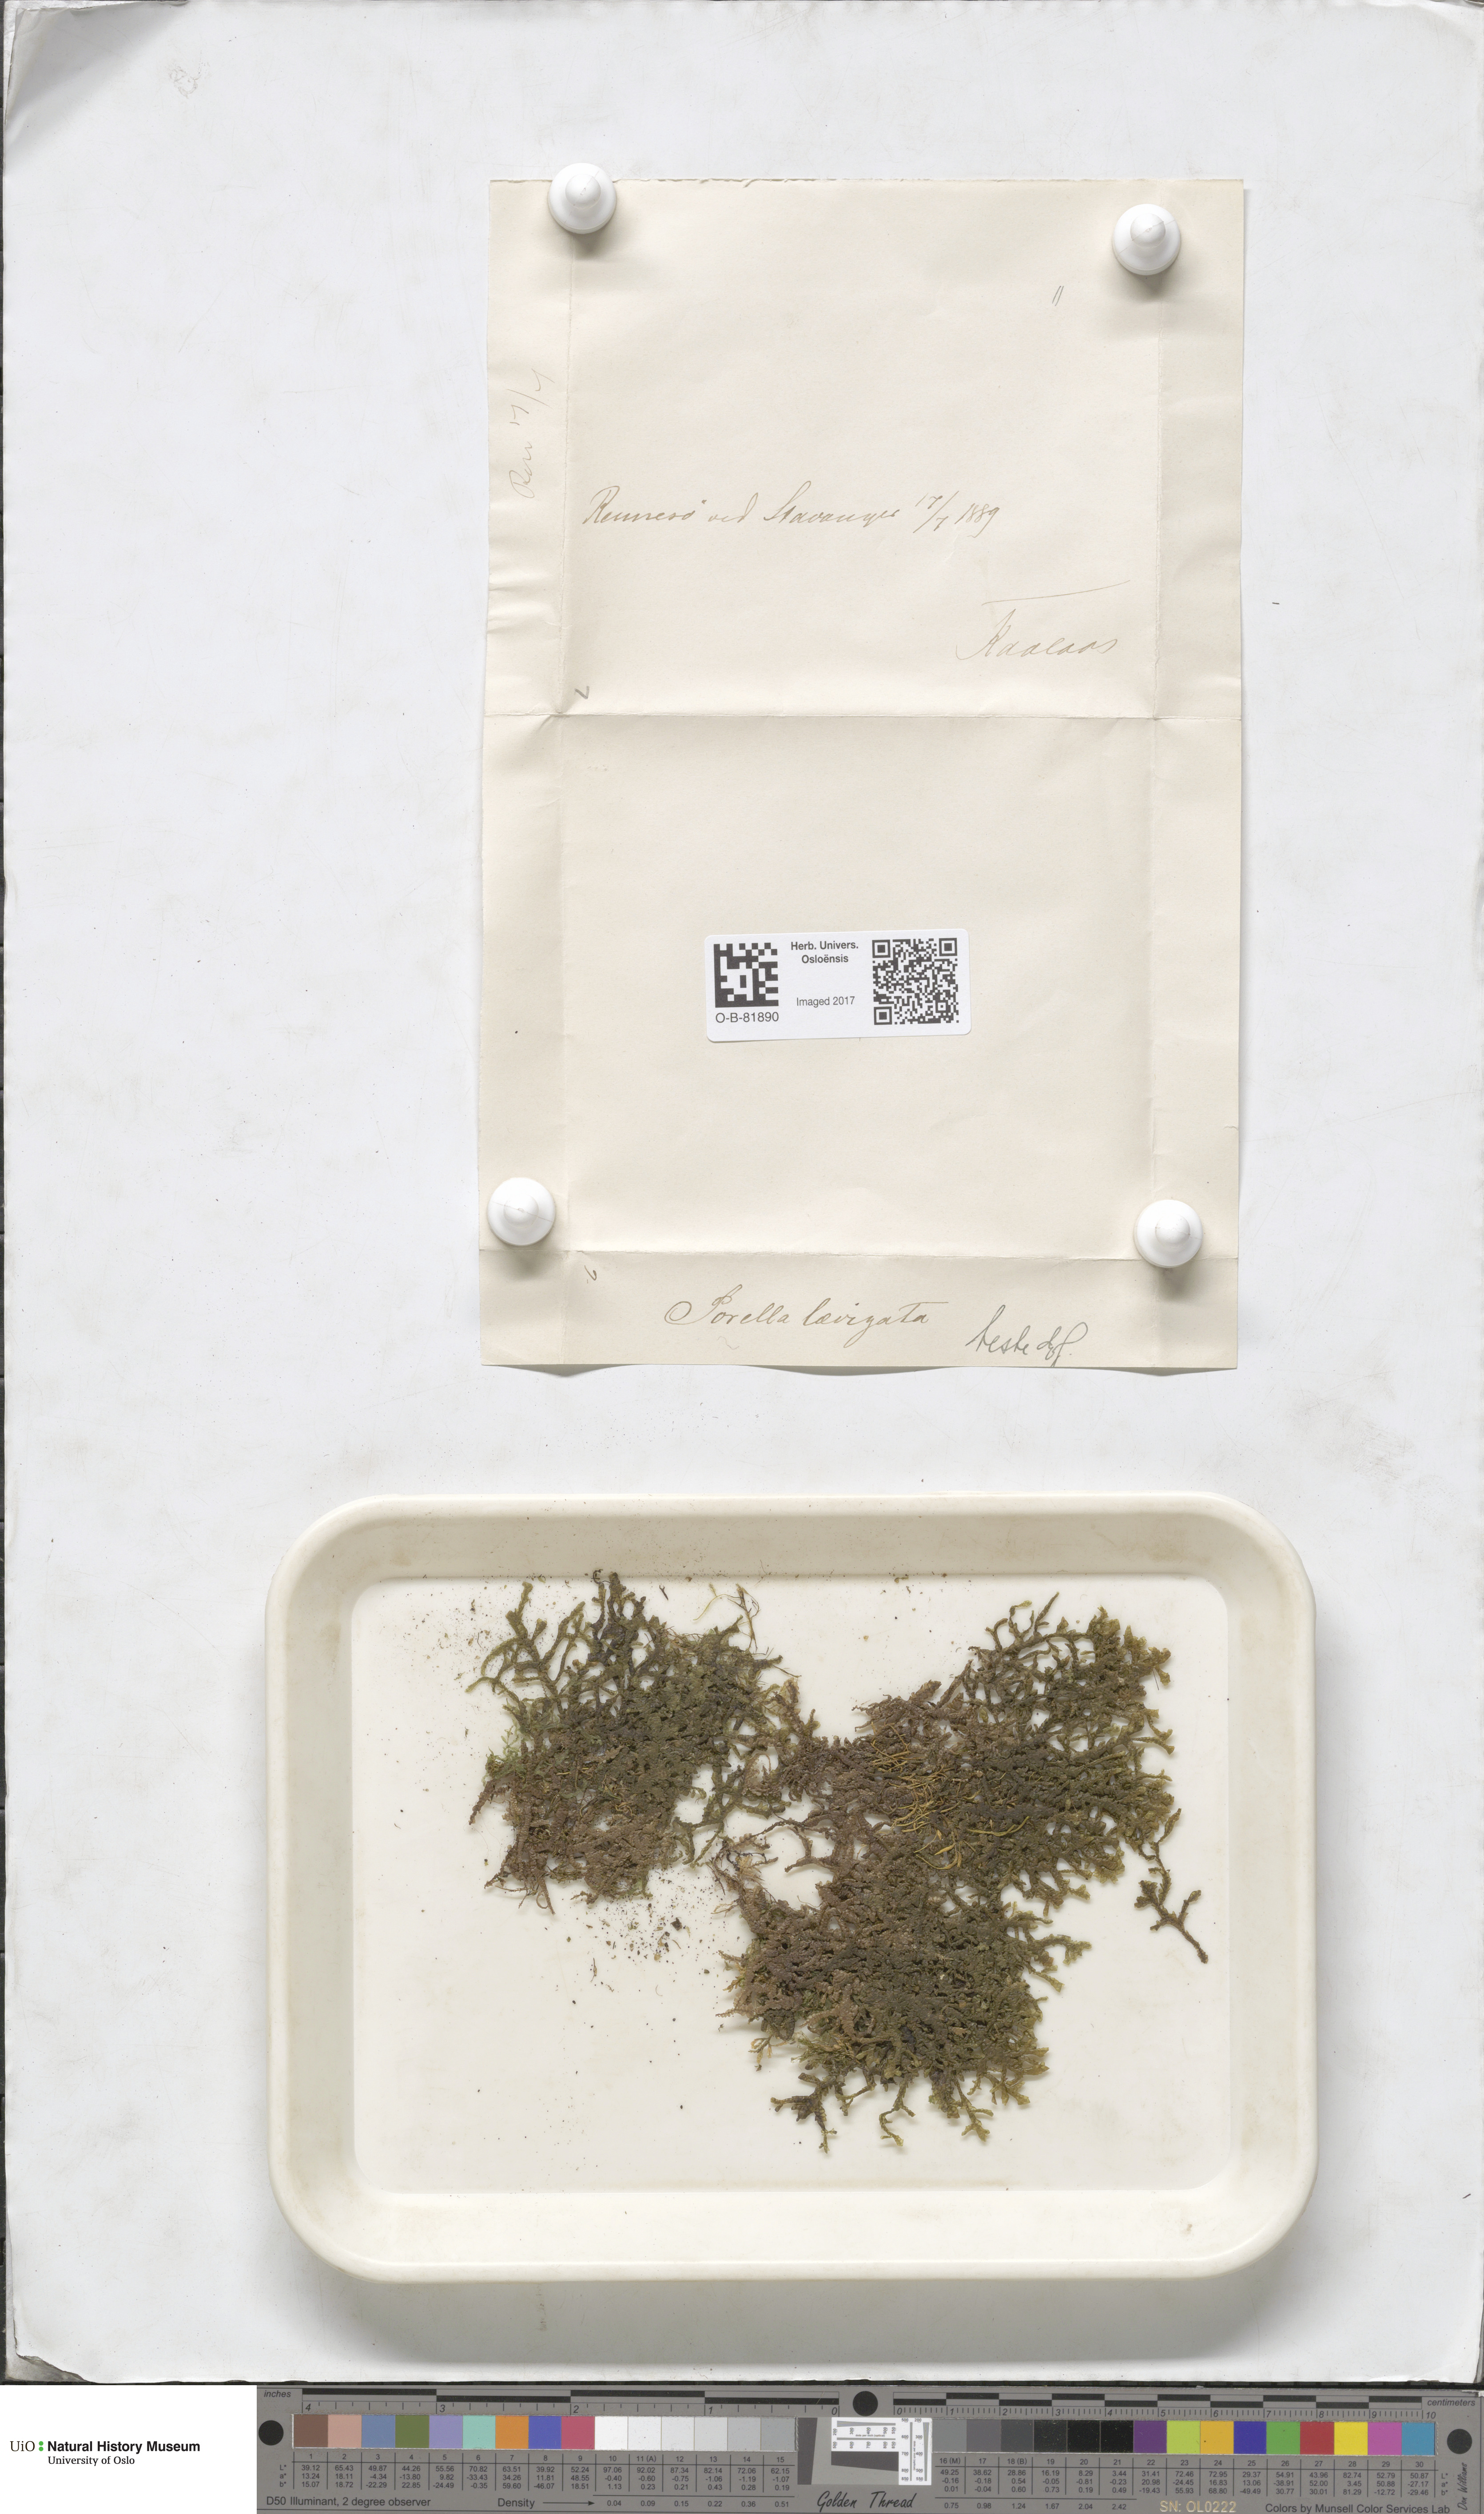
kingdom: Plantae
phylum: Marchantiophyta
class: Jungermanniopsida
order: Porellales
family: Porellaceae
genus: Porella
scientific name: Porella arboris-vitae
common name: Bitter scalewort
